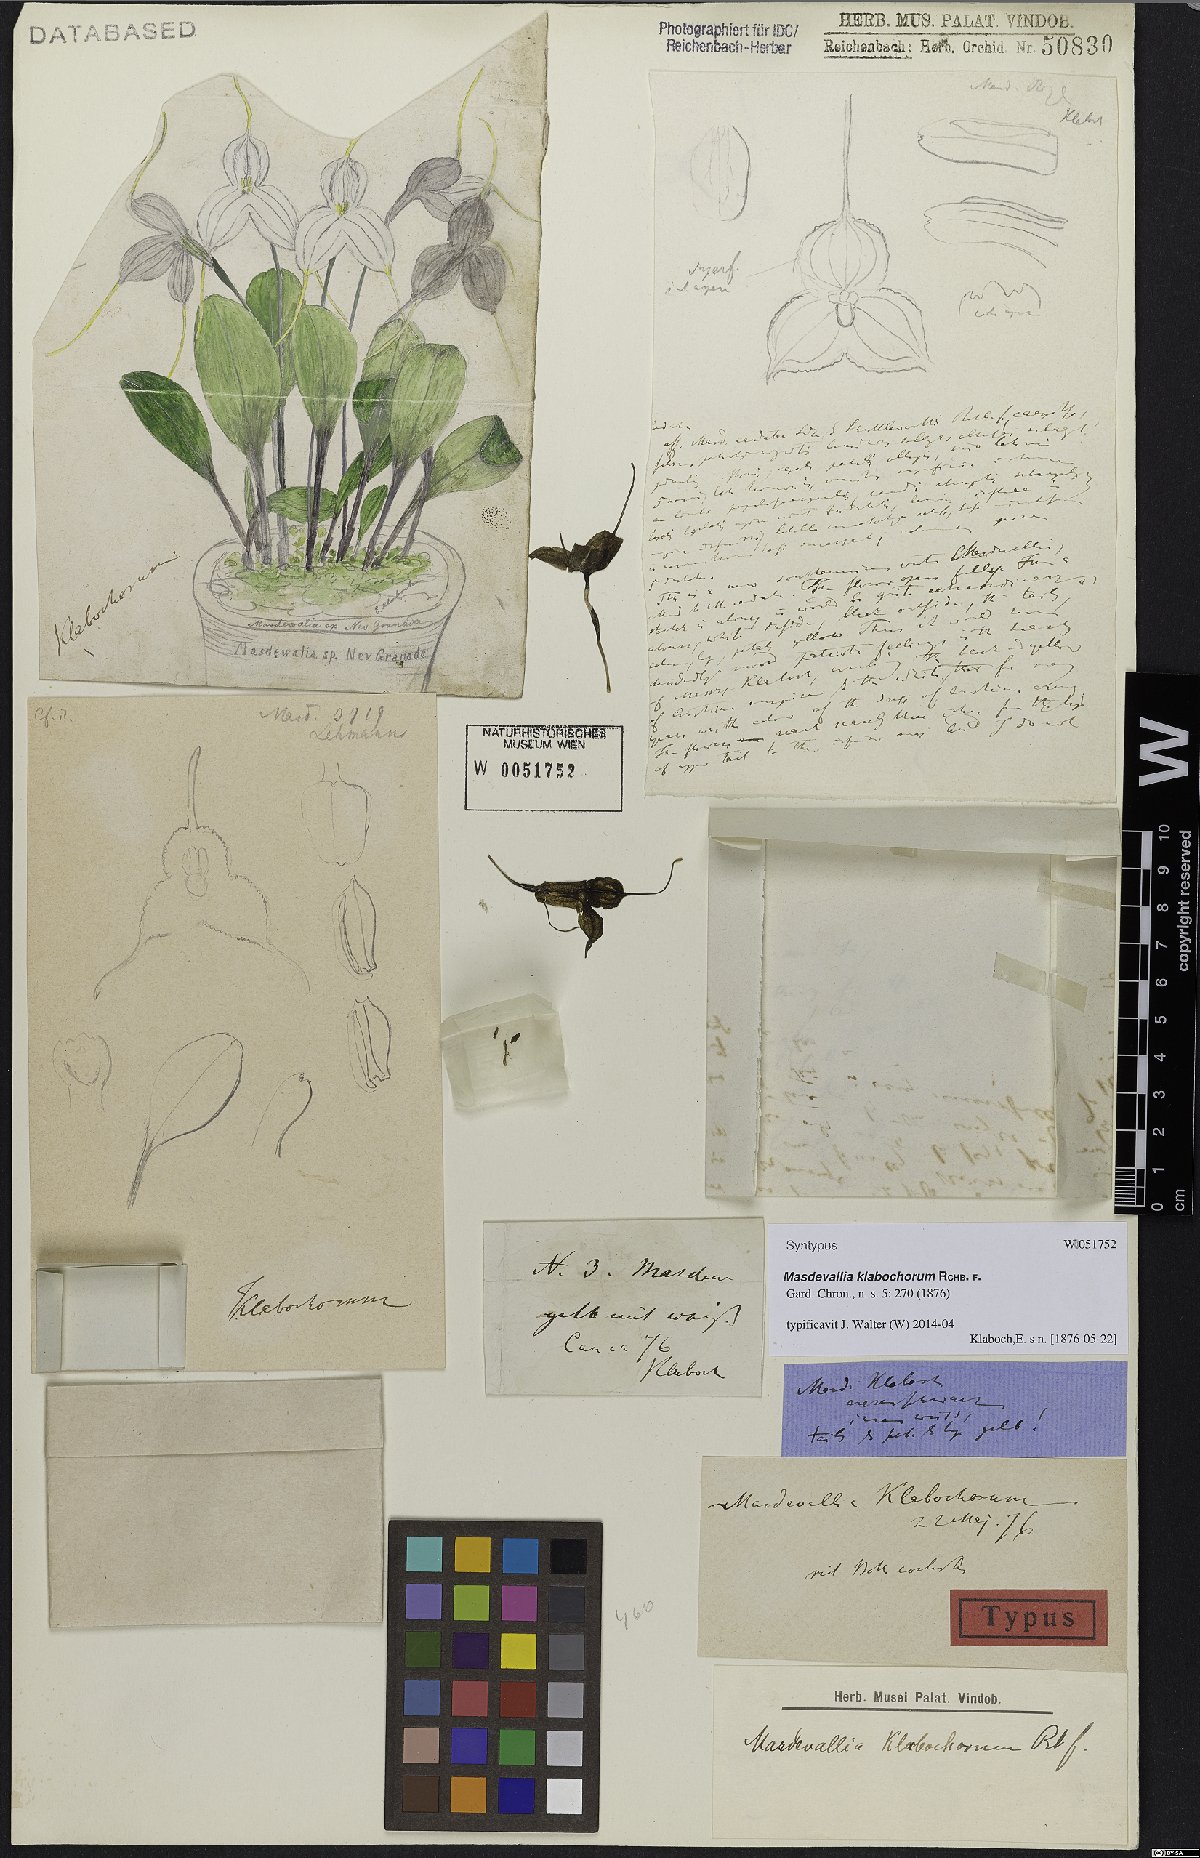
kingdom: Plantae
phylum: Tracheophyta
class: Liliopsida
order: Asparagales
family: Orchidaceae
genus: Masdevallia
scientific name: Masdevallia klabochorum
